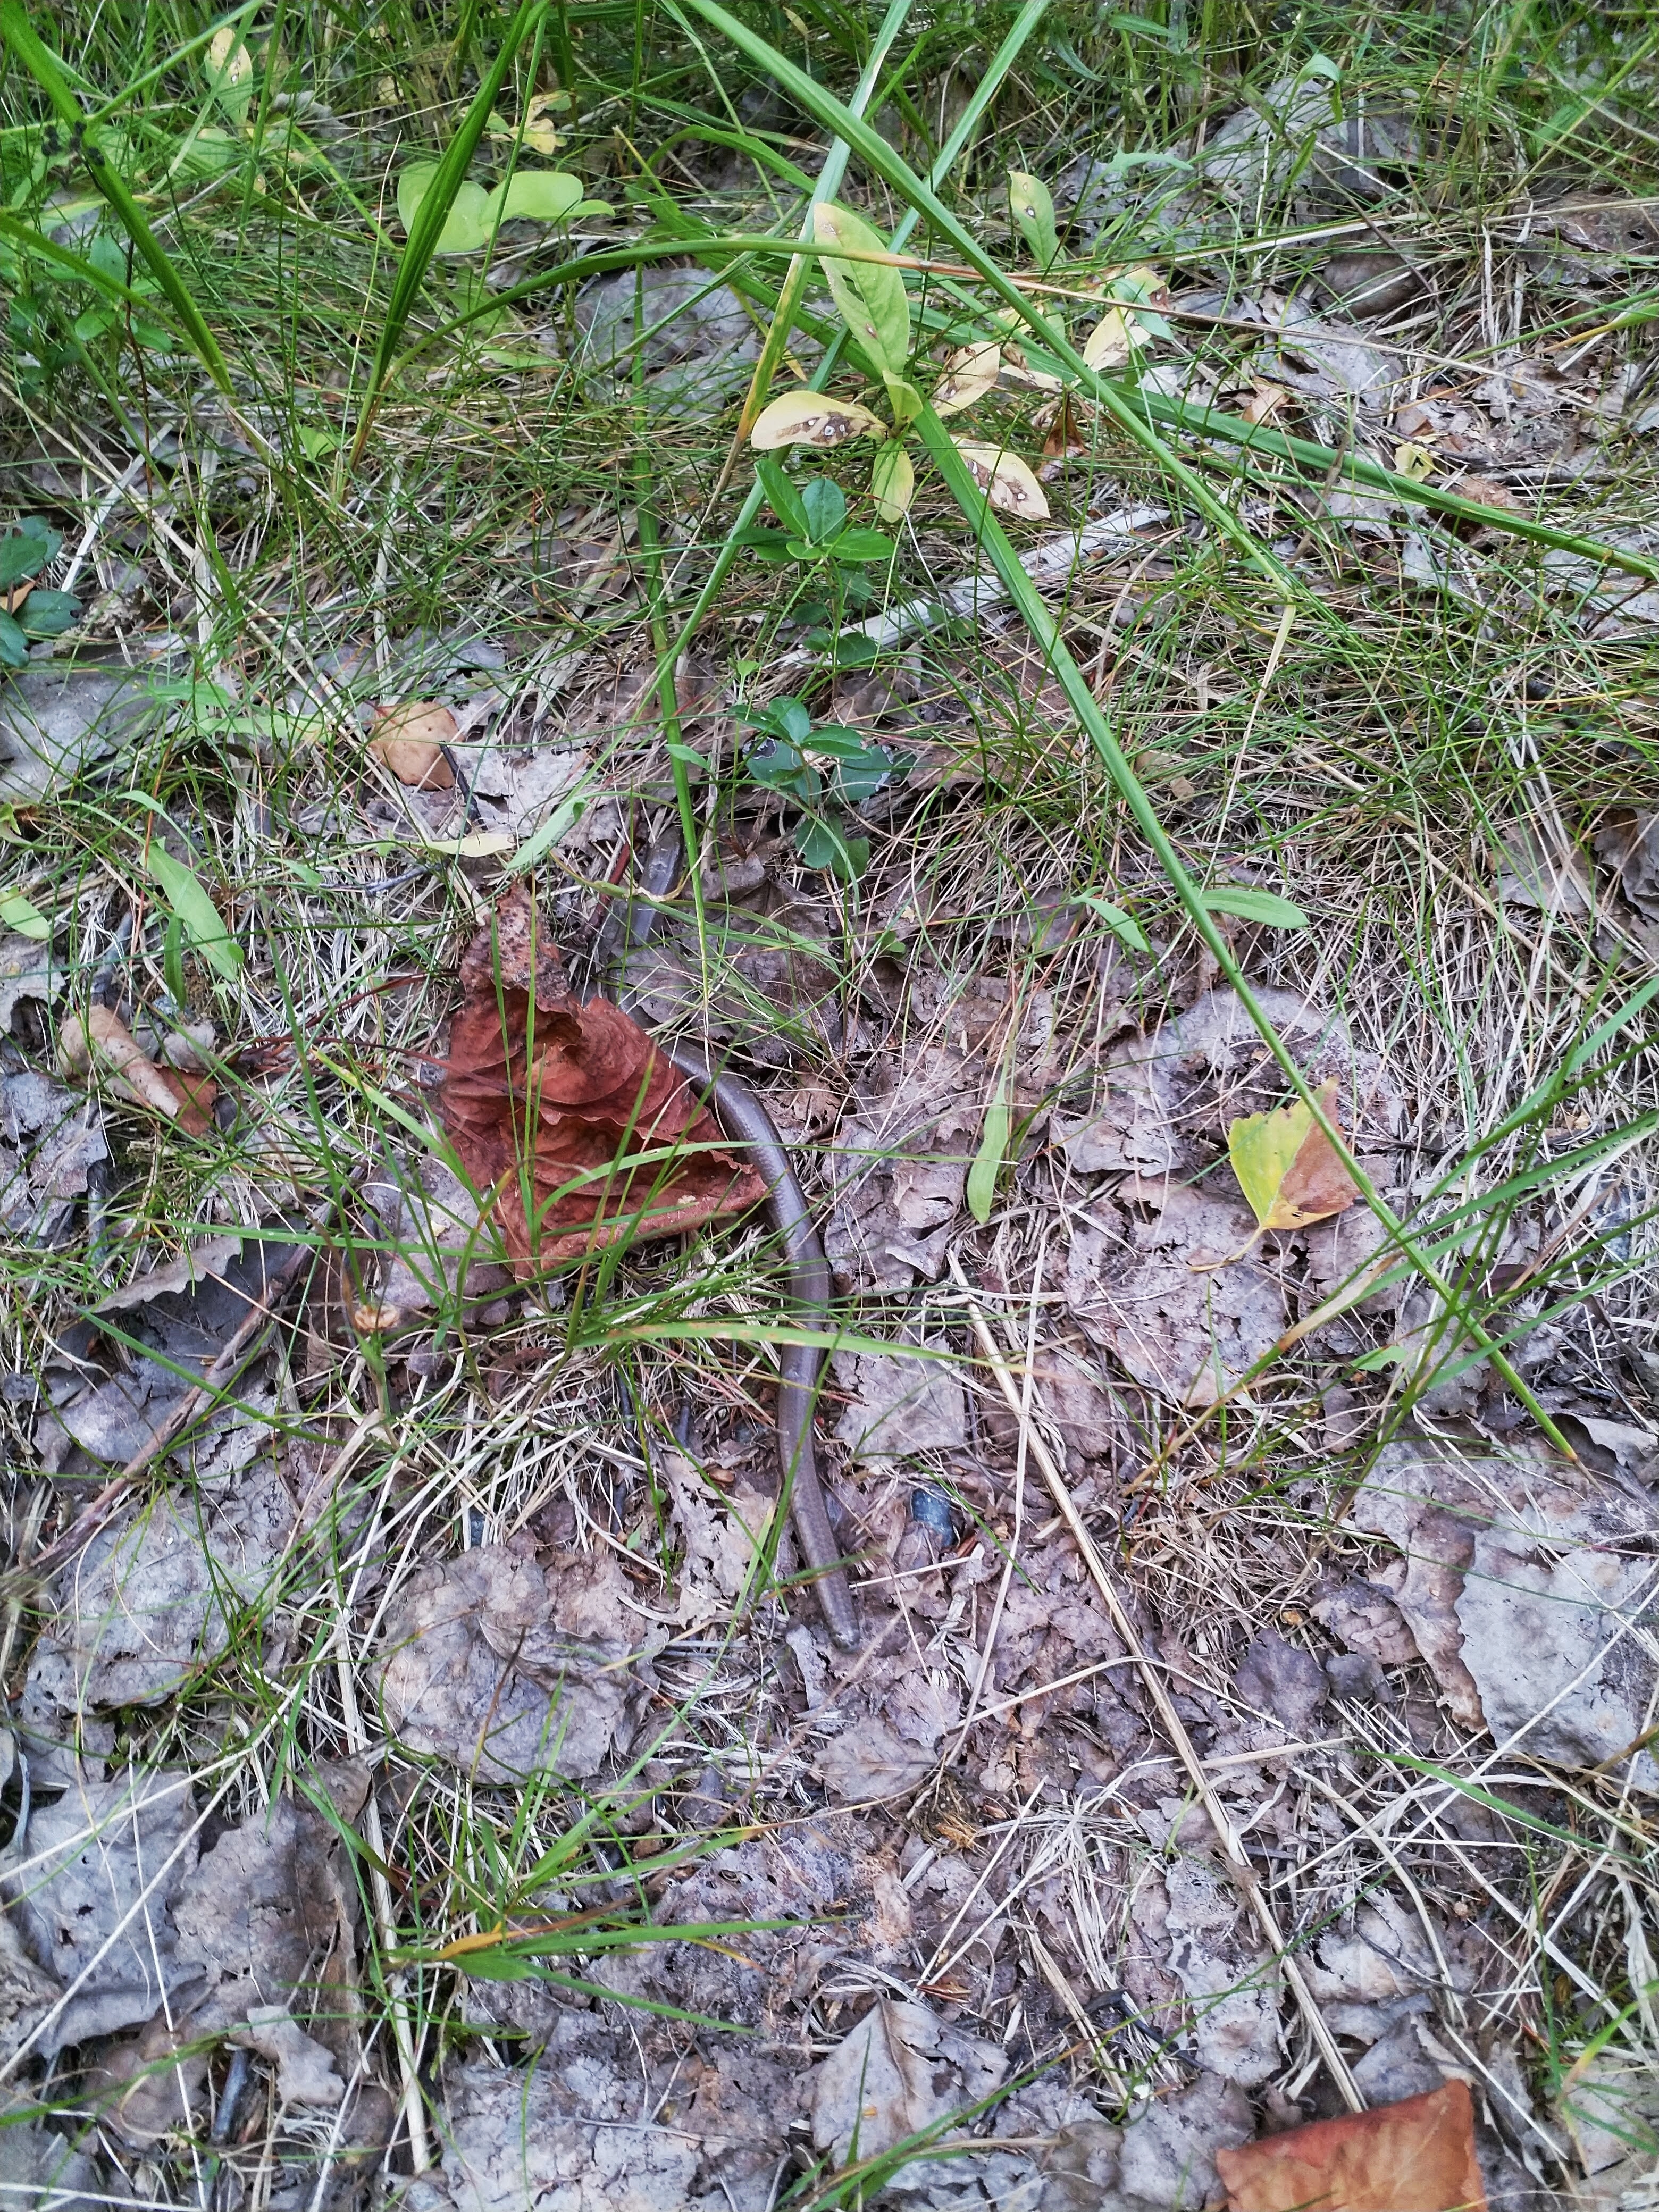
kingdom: Animalia
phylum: Chordata
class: Squamata
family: Anguidae
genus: Anguis
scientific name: Anguis colchica
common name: Slow worm
